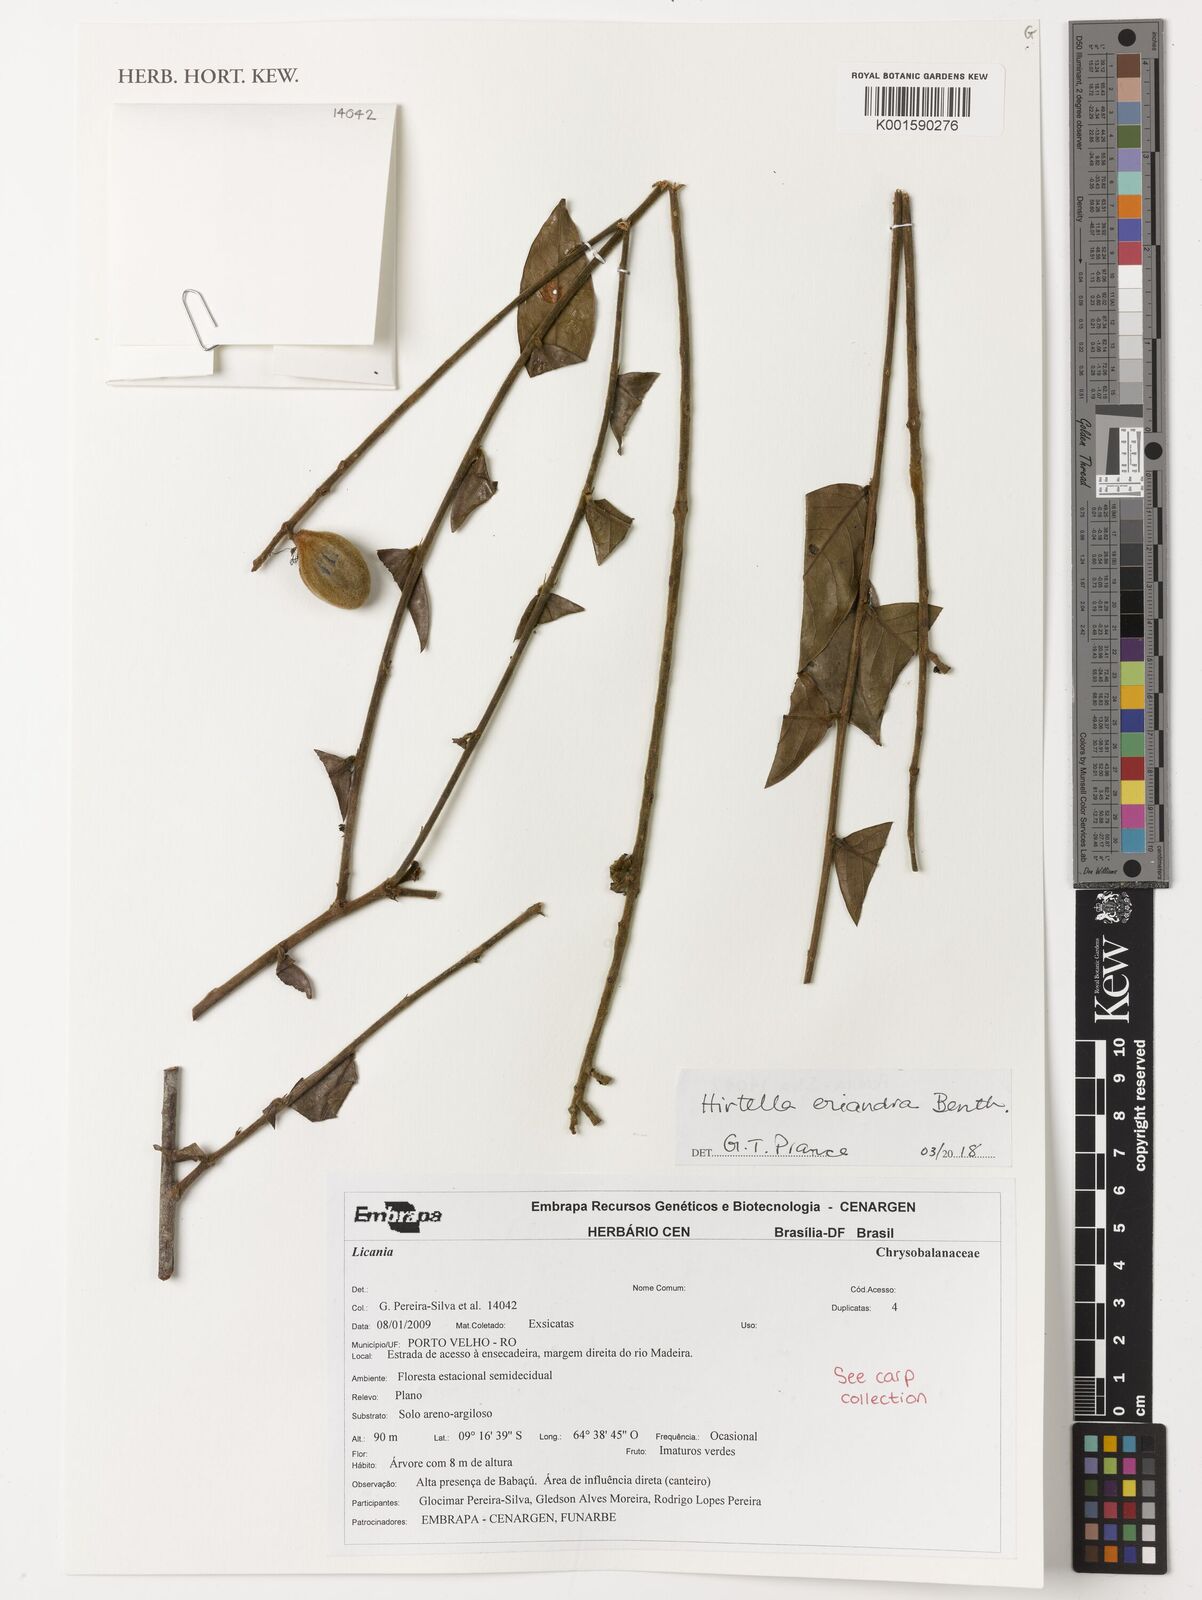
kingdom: Plantae
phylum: Tracheophyta
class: Magnoliopsida
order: Malpighiales
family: Chrysobalanaceae
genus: Hirtella
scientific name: Hirtella eriandra
